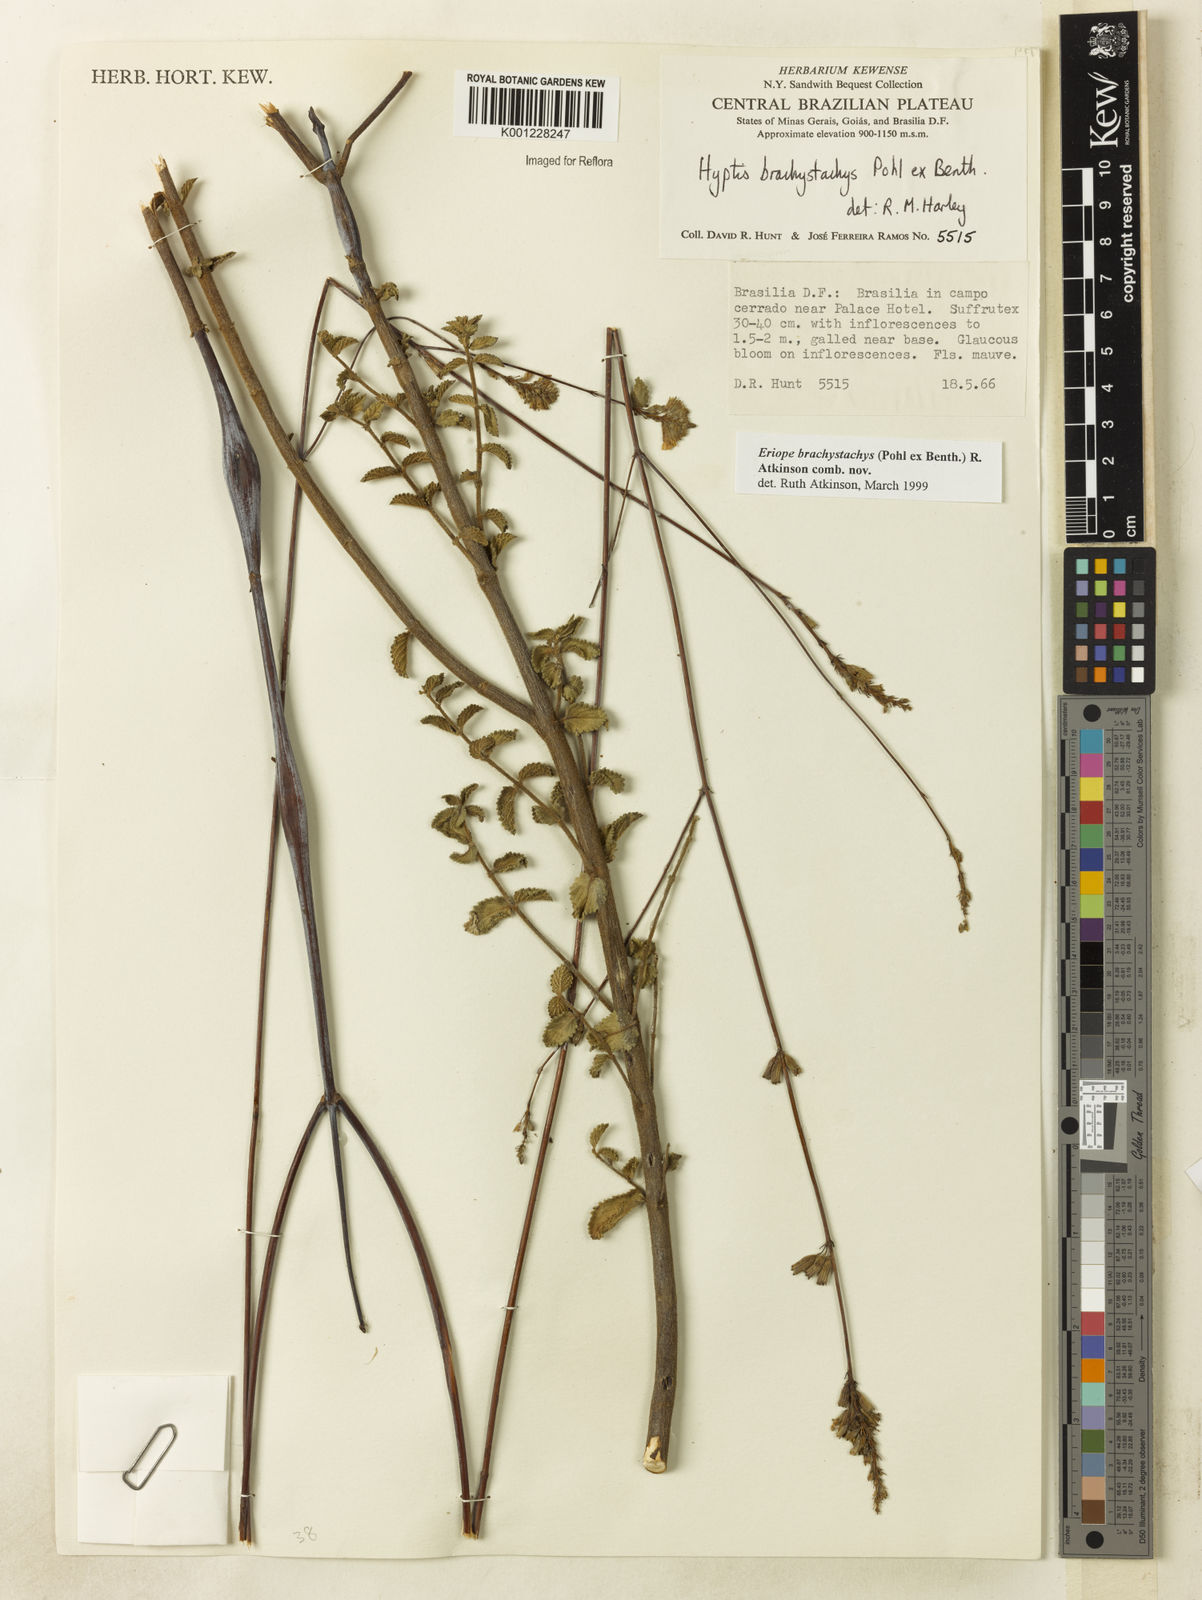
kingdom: Plantae
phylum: Tracheophyta
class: Magnoliopsida
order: Lamiales
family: Lamiaceae
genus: Hypenia
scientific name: Hypenia brachystachys
